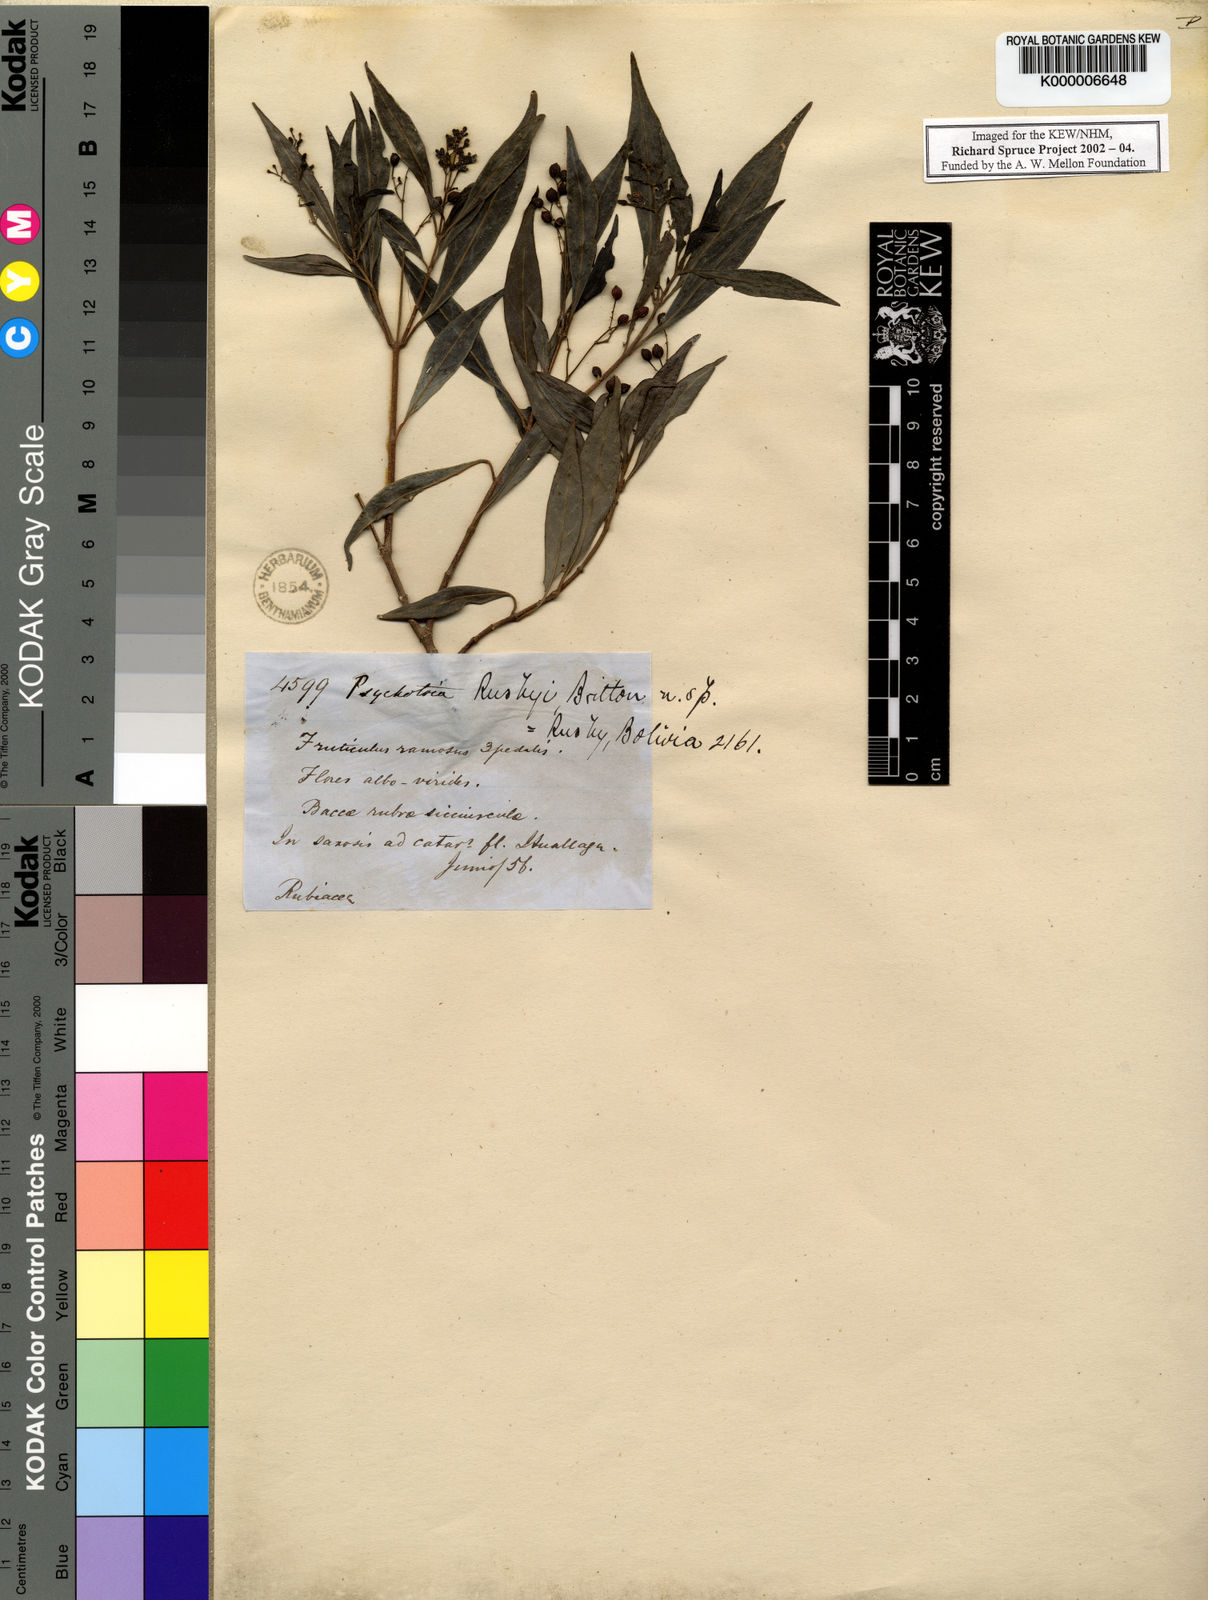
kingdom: Plantae
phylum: Tracheophyta
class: Magnoliopsida
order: Gentianales
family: Rubiaceae
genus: Psychotria
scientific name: Psychotria
